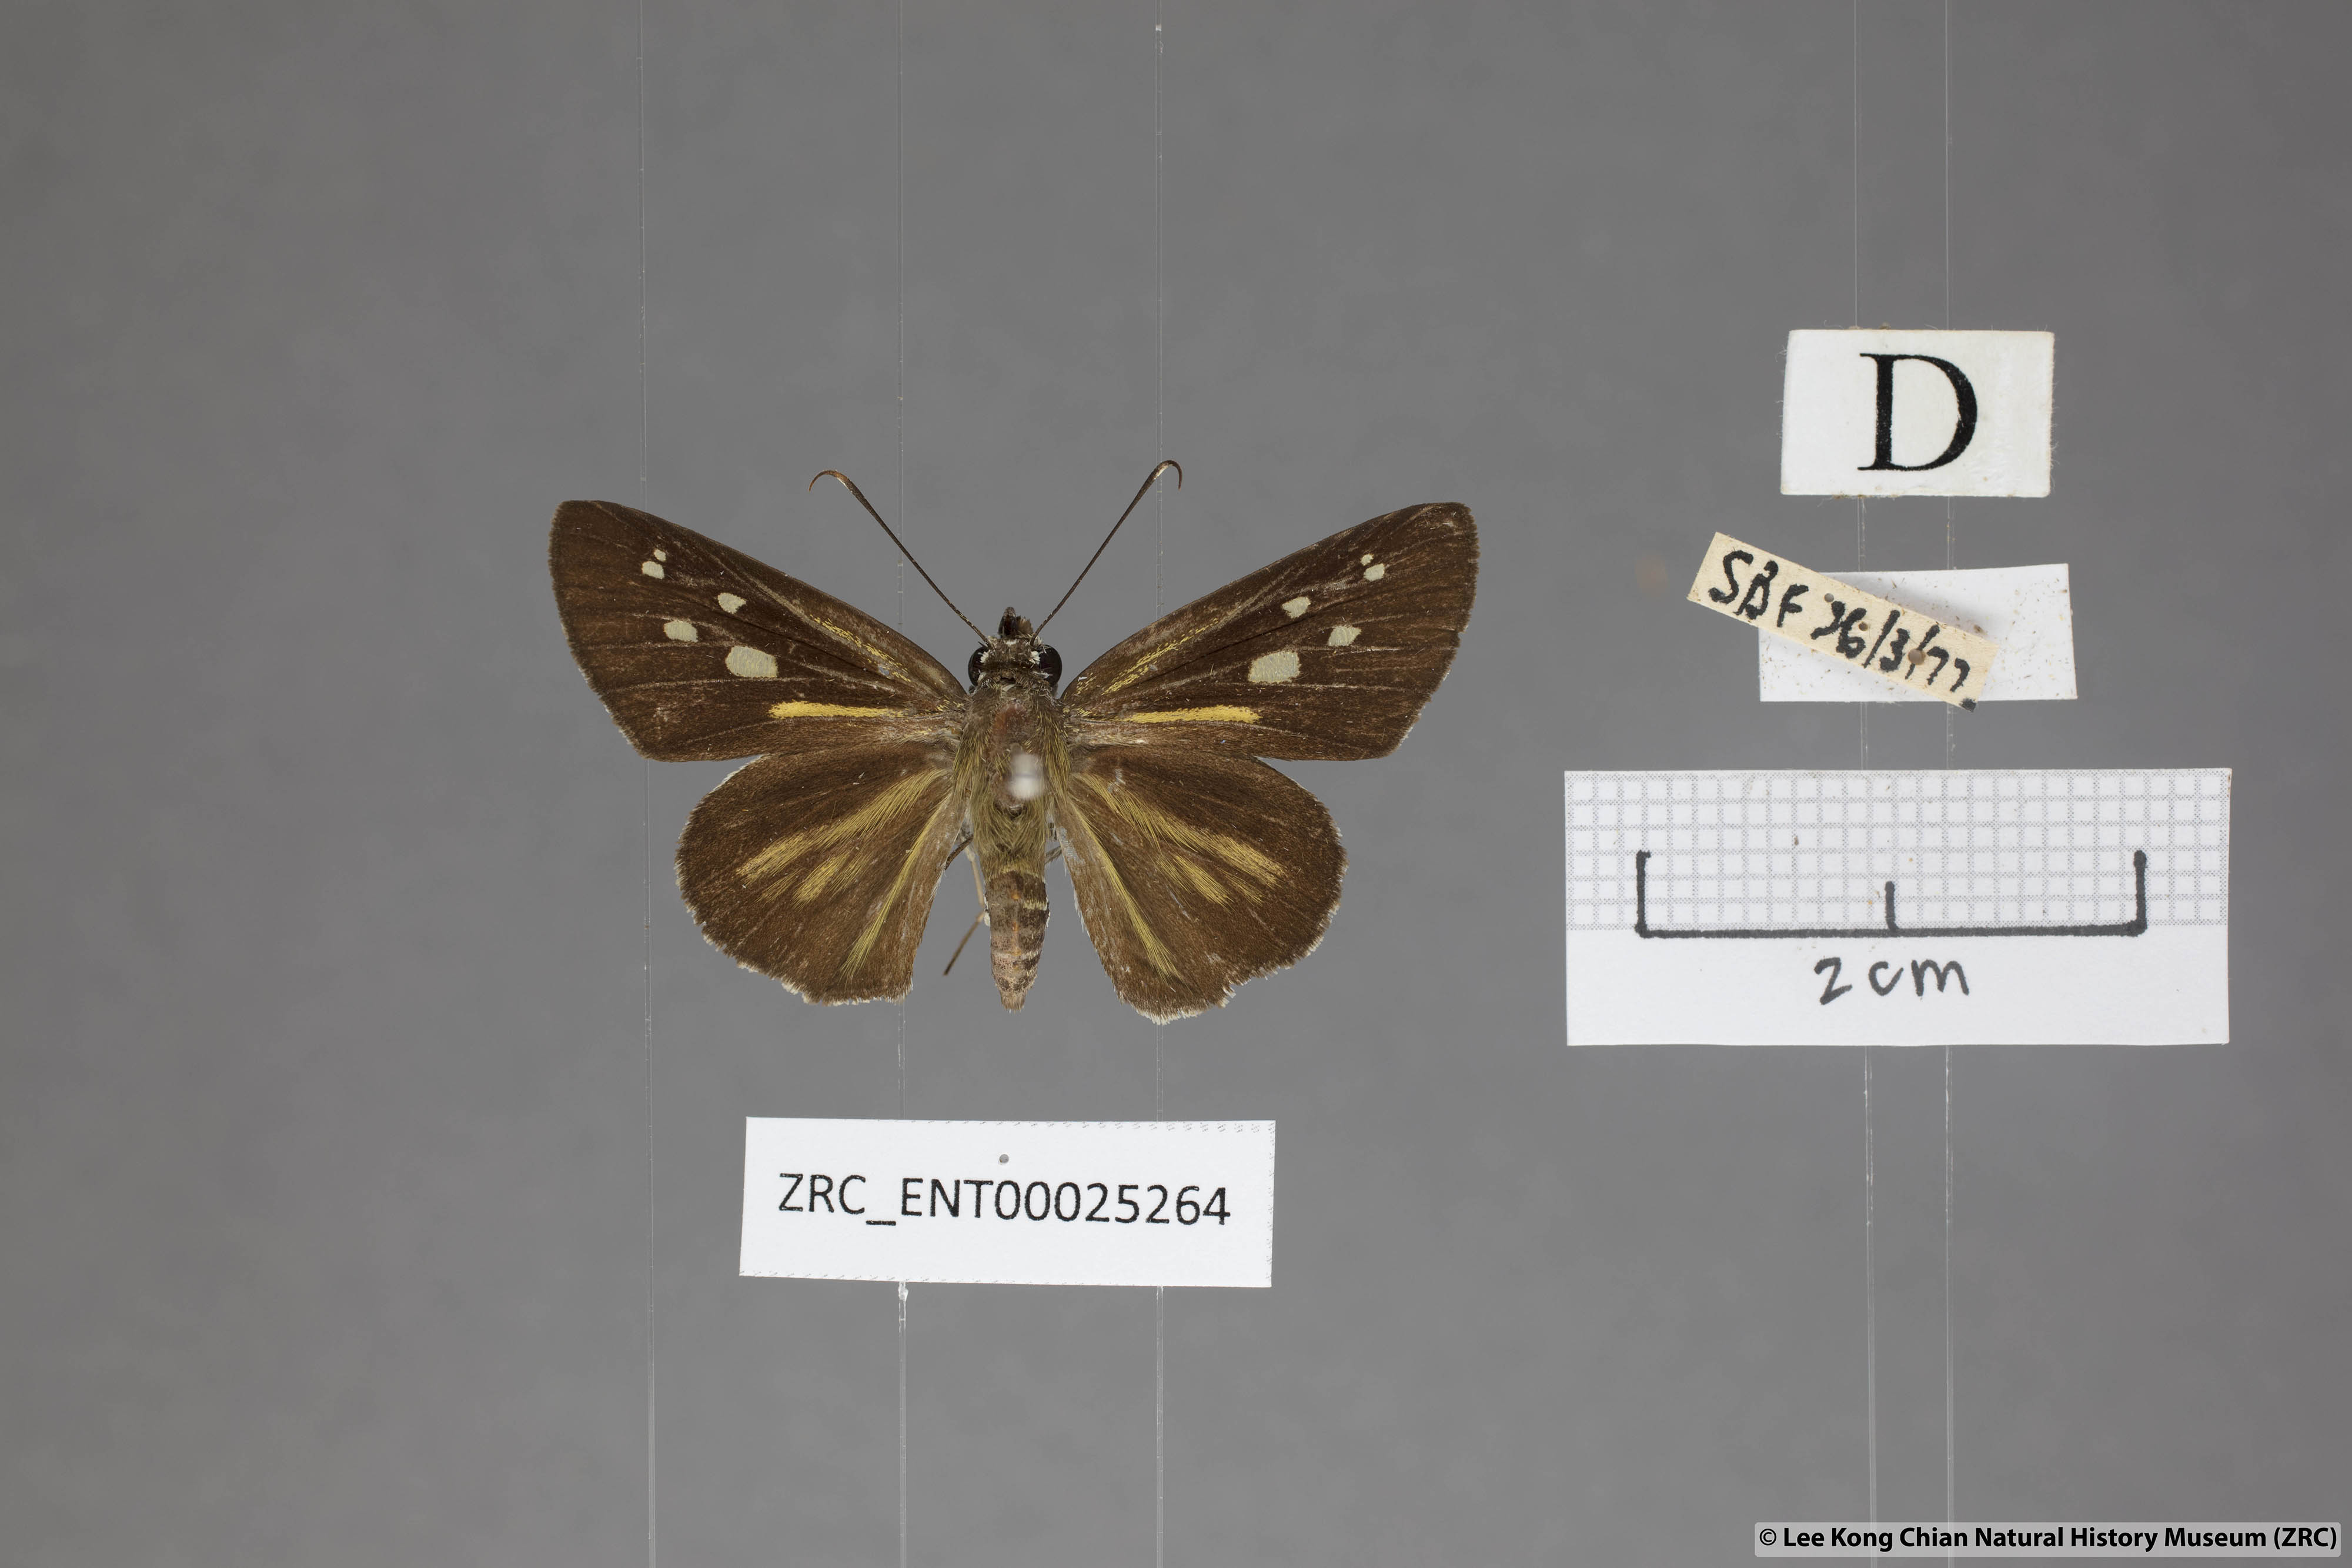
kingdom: Animalia
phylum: Arthropoda
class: Insecta
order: Lepidoptera
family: Hesperiidae
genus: Plastingia
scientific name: Plastingia naga
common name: Chequered lancer
